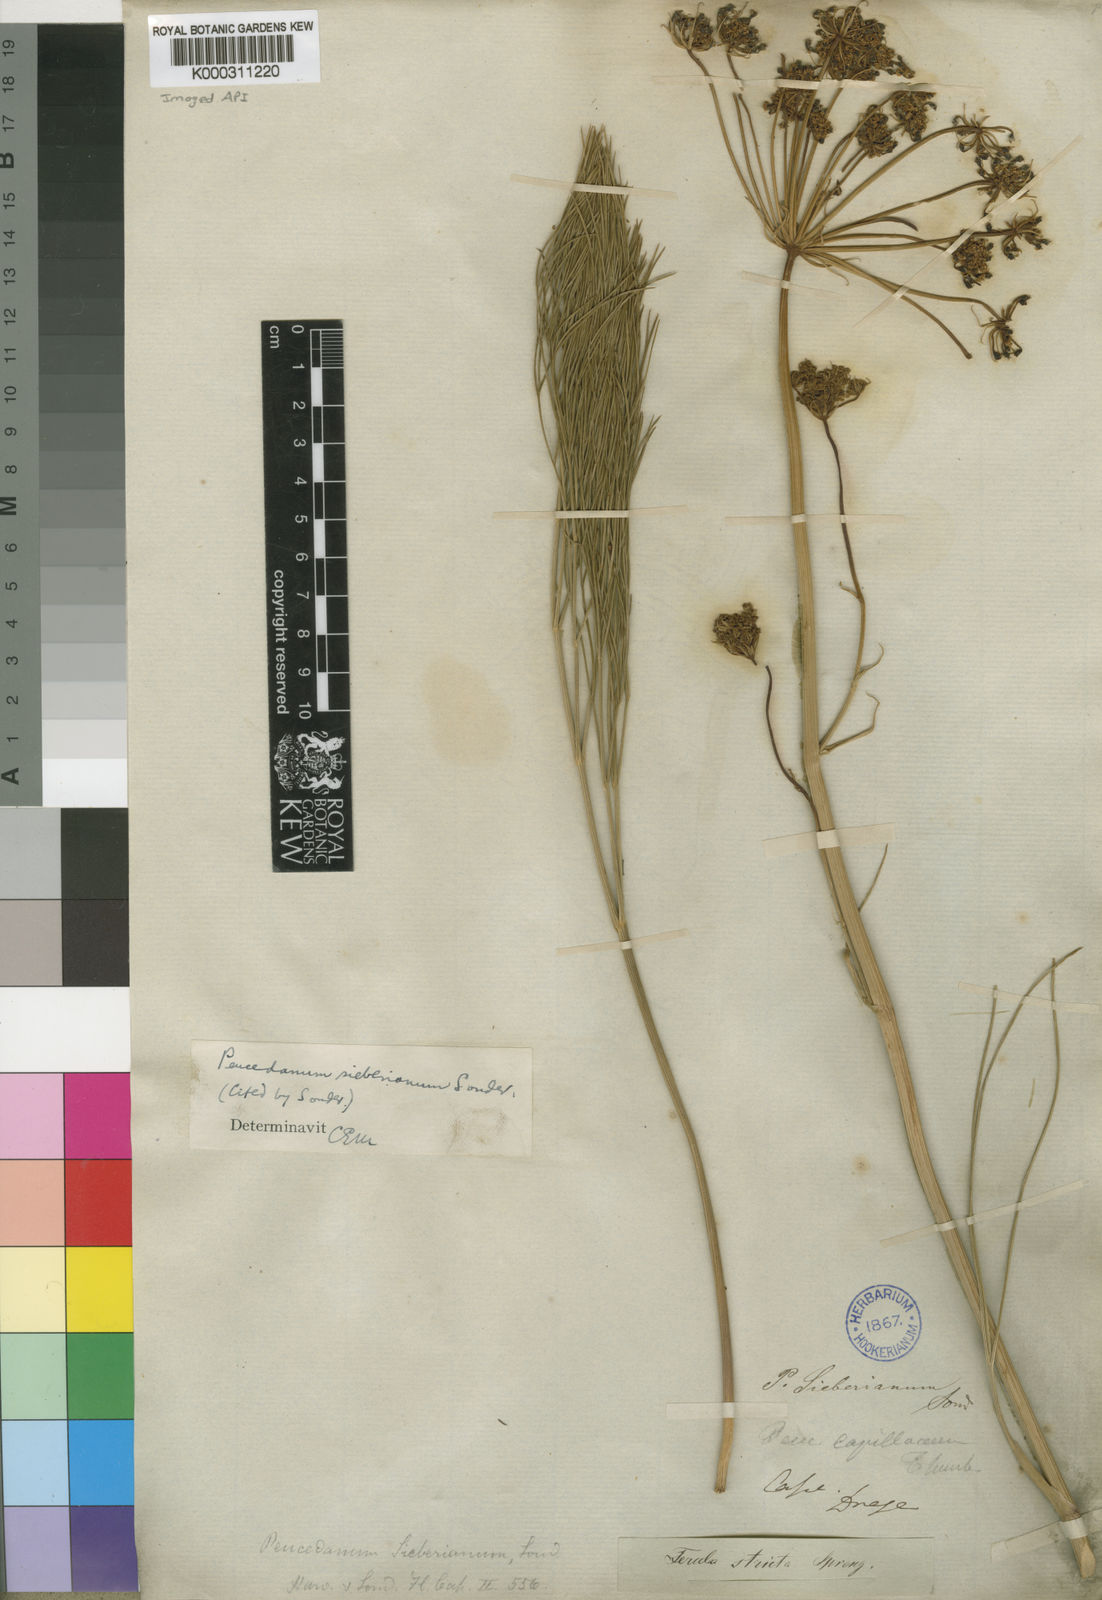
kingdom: Plantae
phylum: Tracheophyta
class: Magnoliopsida
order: Apiales
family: Apiaceae
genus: Nanobubon
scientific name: Nanobubon strictum
